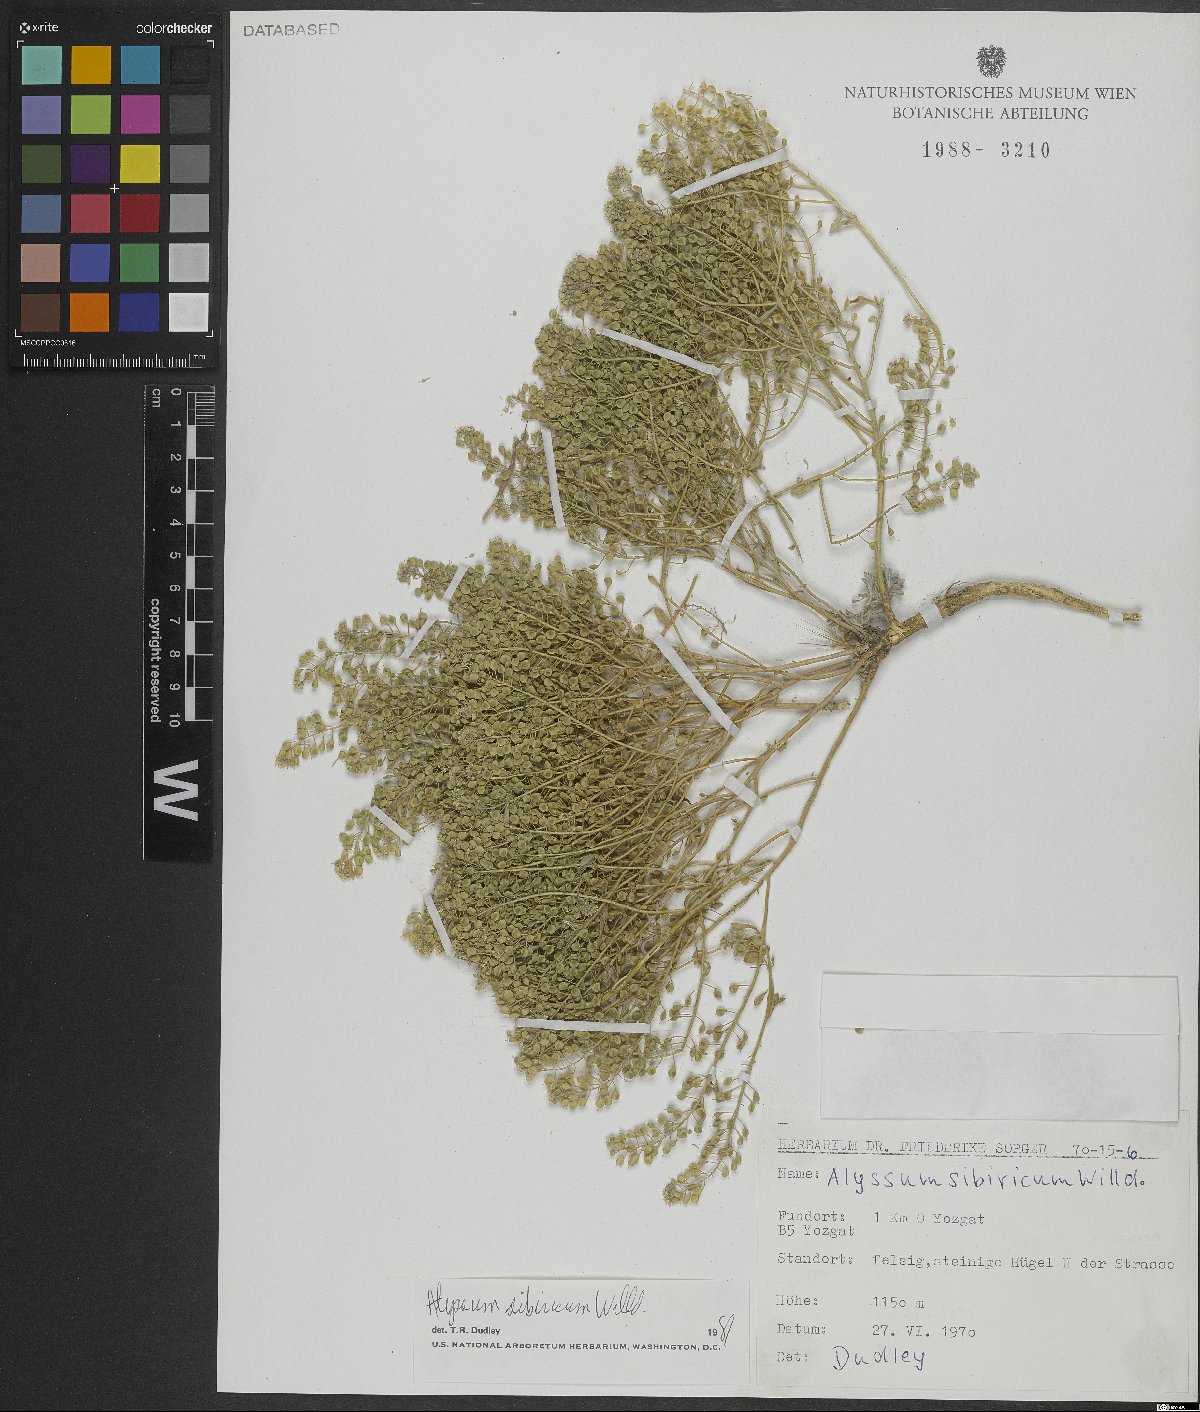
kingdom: Plantae
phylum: Tracheophyta
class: Magnoliopsida
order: Brassicales
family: Brassicaceae
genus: Odontarrhena
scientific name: Odontarrhena sibirica
